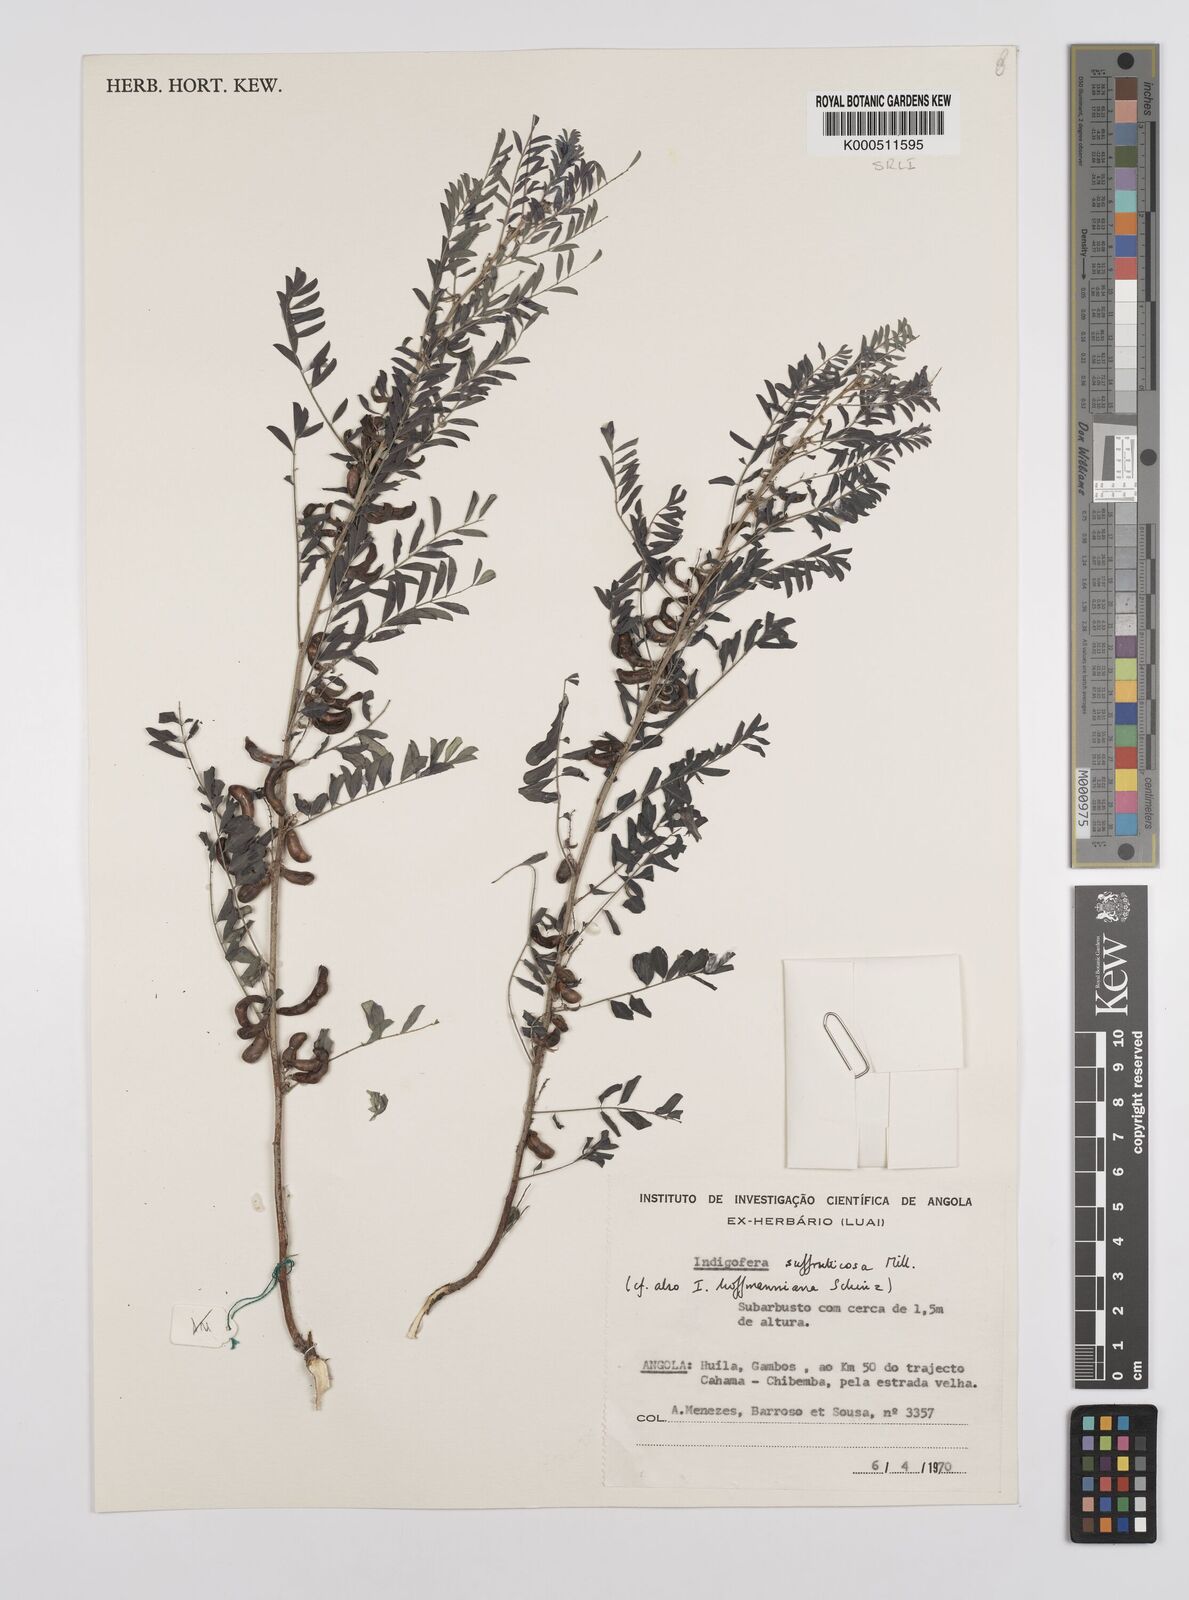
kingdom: Plantae
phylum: Tracheophyta
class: Magnoliopsida
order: Fabales
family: Fabaceae
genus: Indigofera
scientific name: Indigofera hofmanniana
